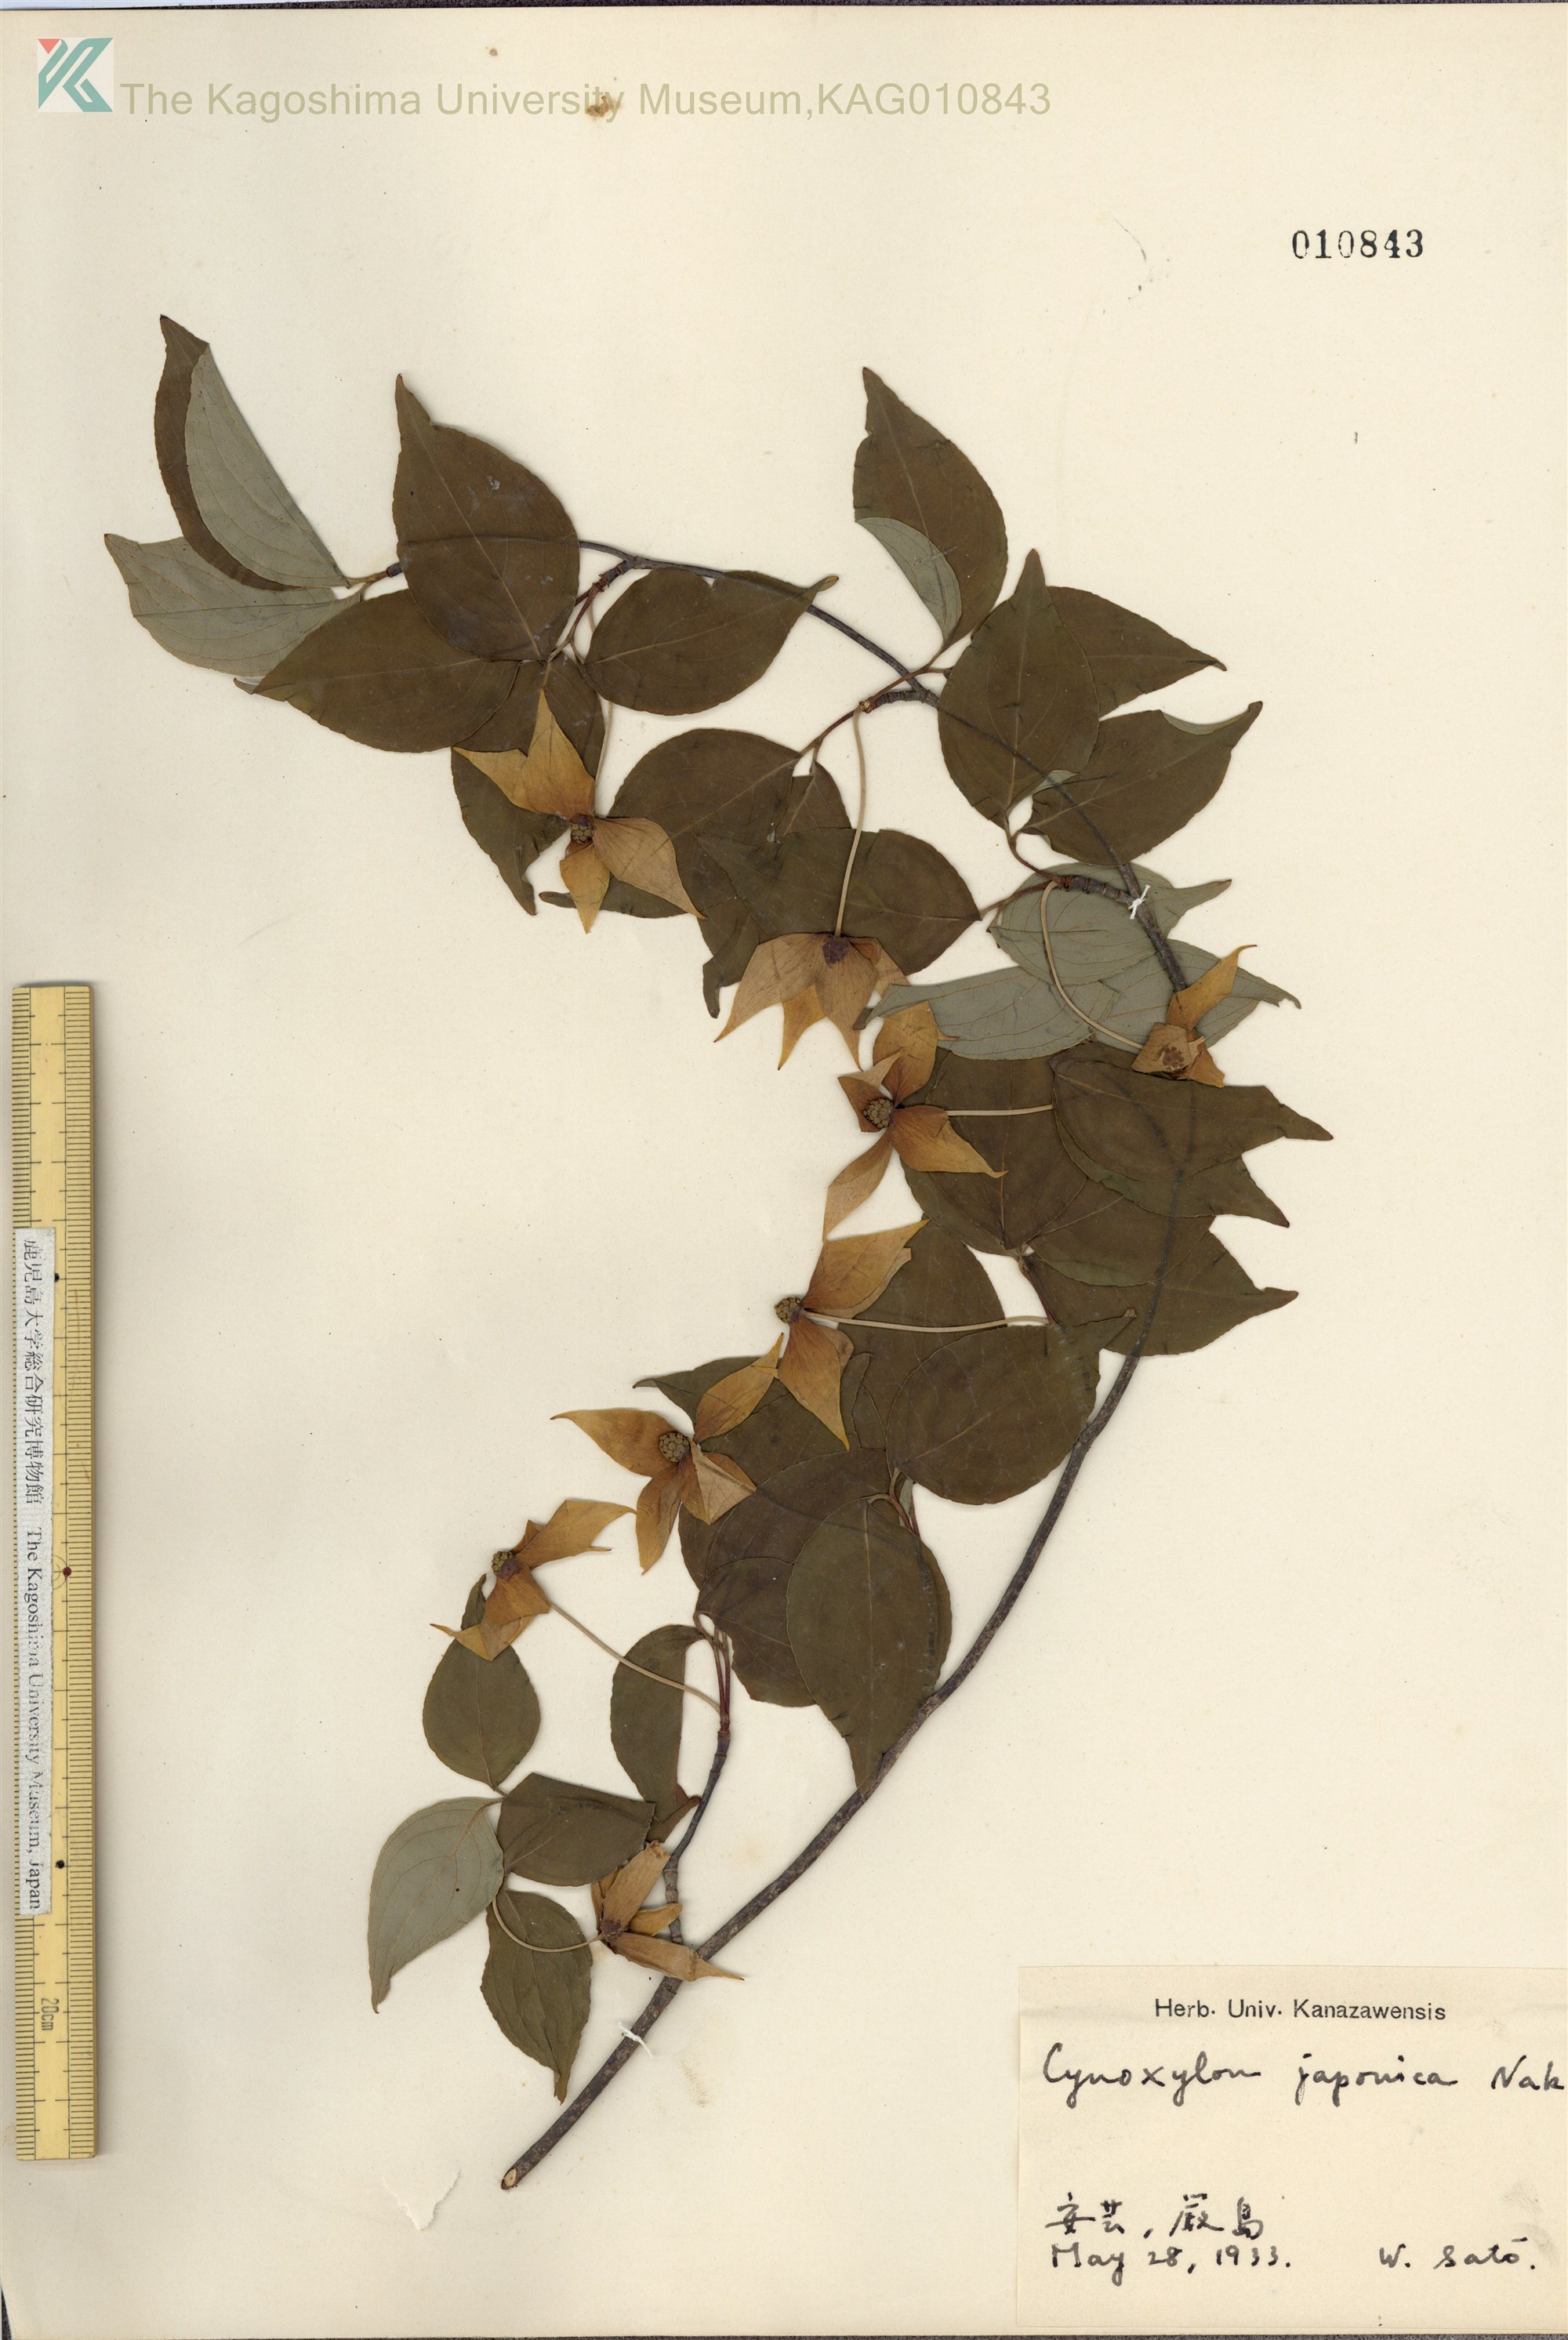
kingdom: Plantae
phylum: Tracheophyta
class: Magnoliopsida
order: Cornales
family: Cornaceae
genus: Cornus
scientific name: Cornus kousa
